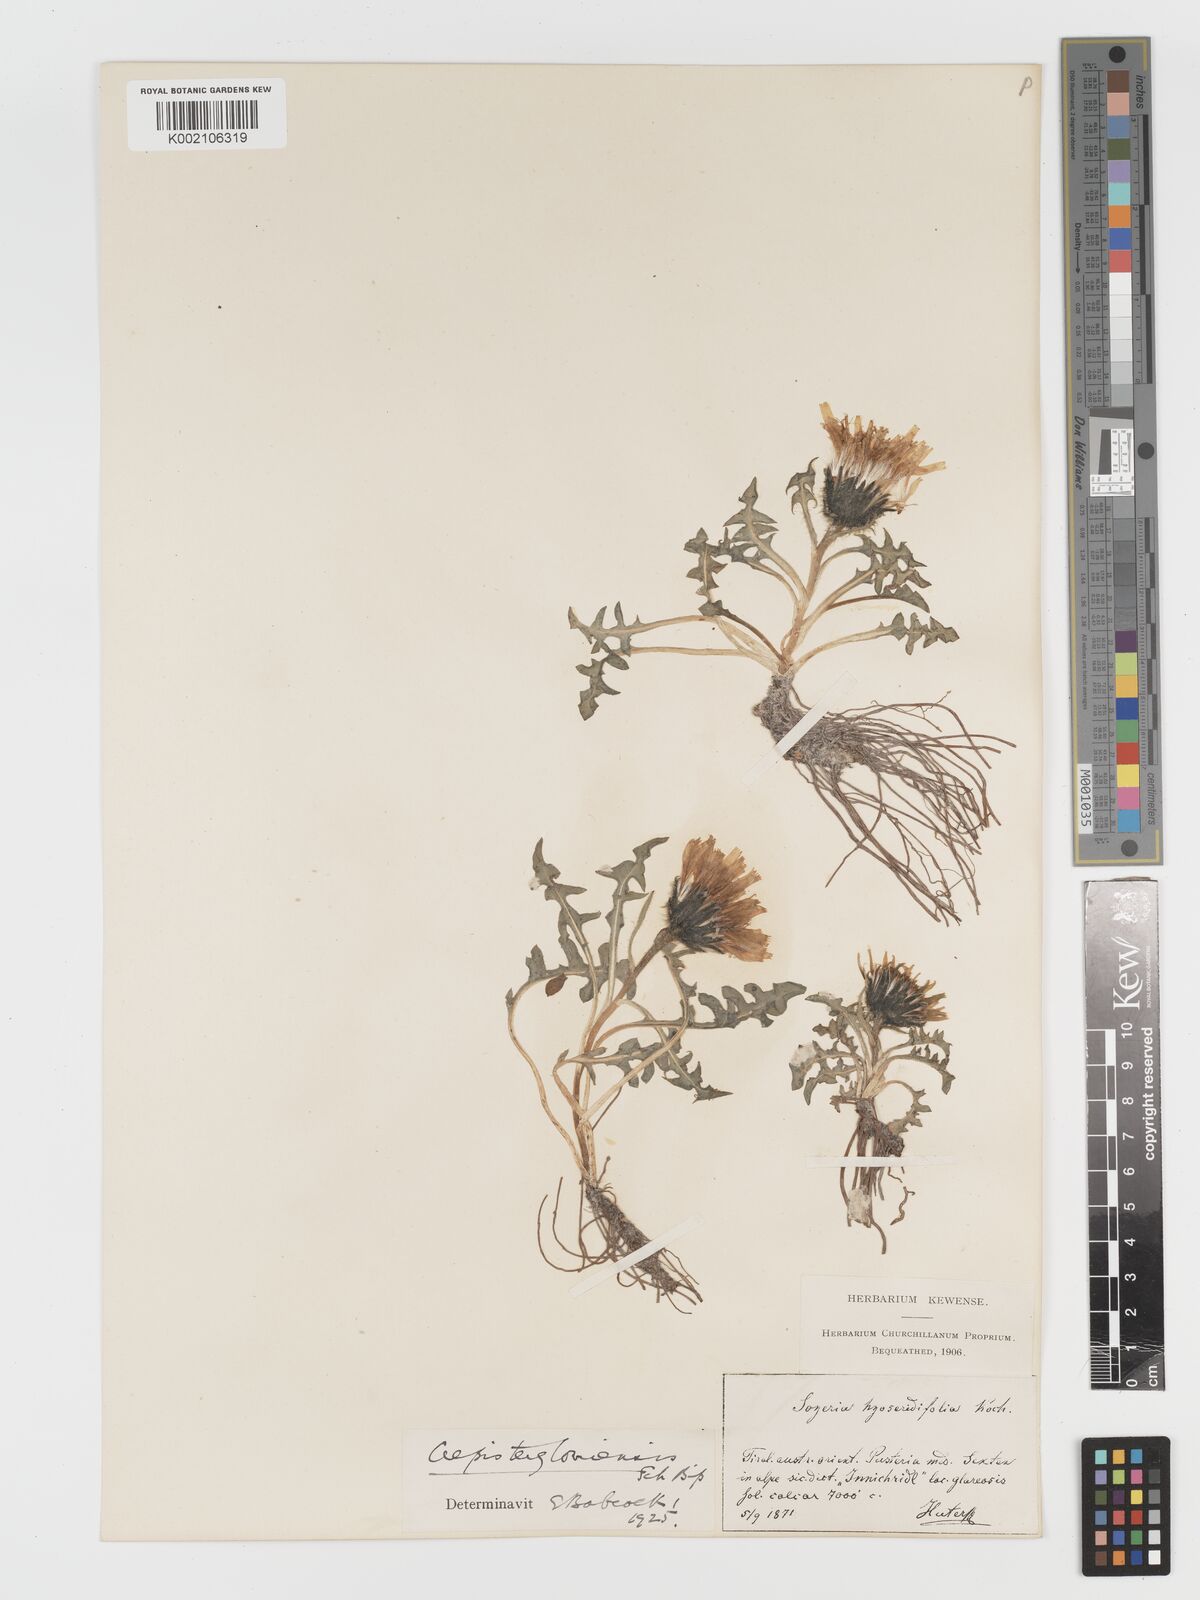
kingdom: Plantae
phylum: Tracheophyta
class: Magnoliopsida
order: Asterales
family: Asteraceae
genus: Crepis
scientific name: Crepis terglouensis
